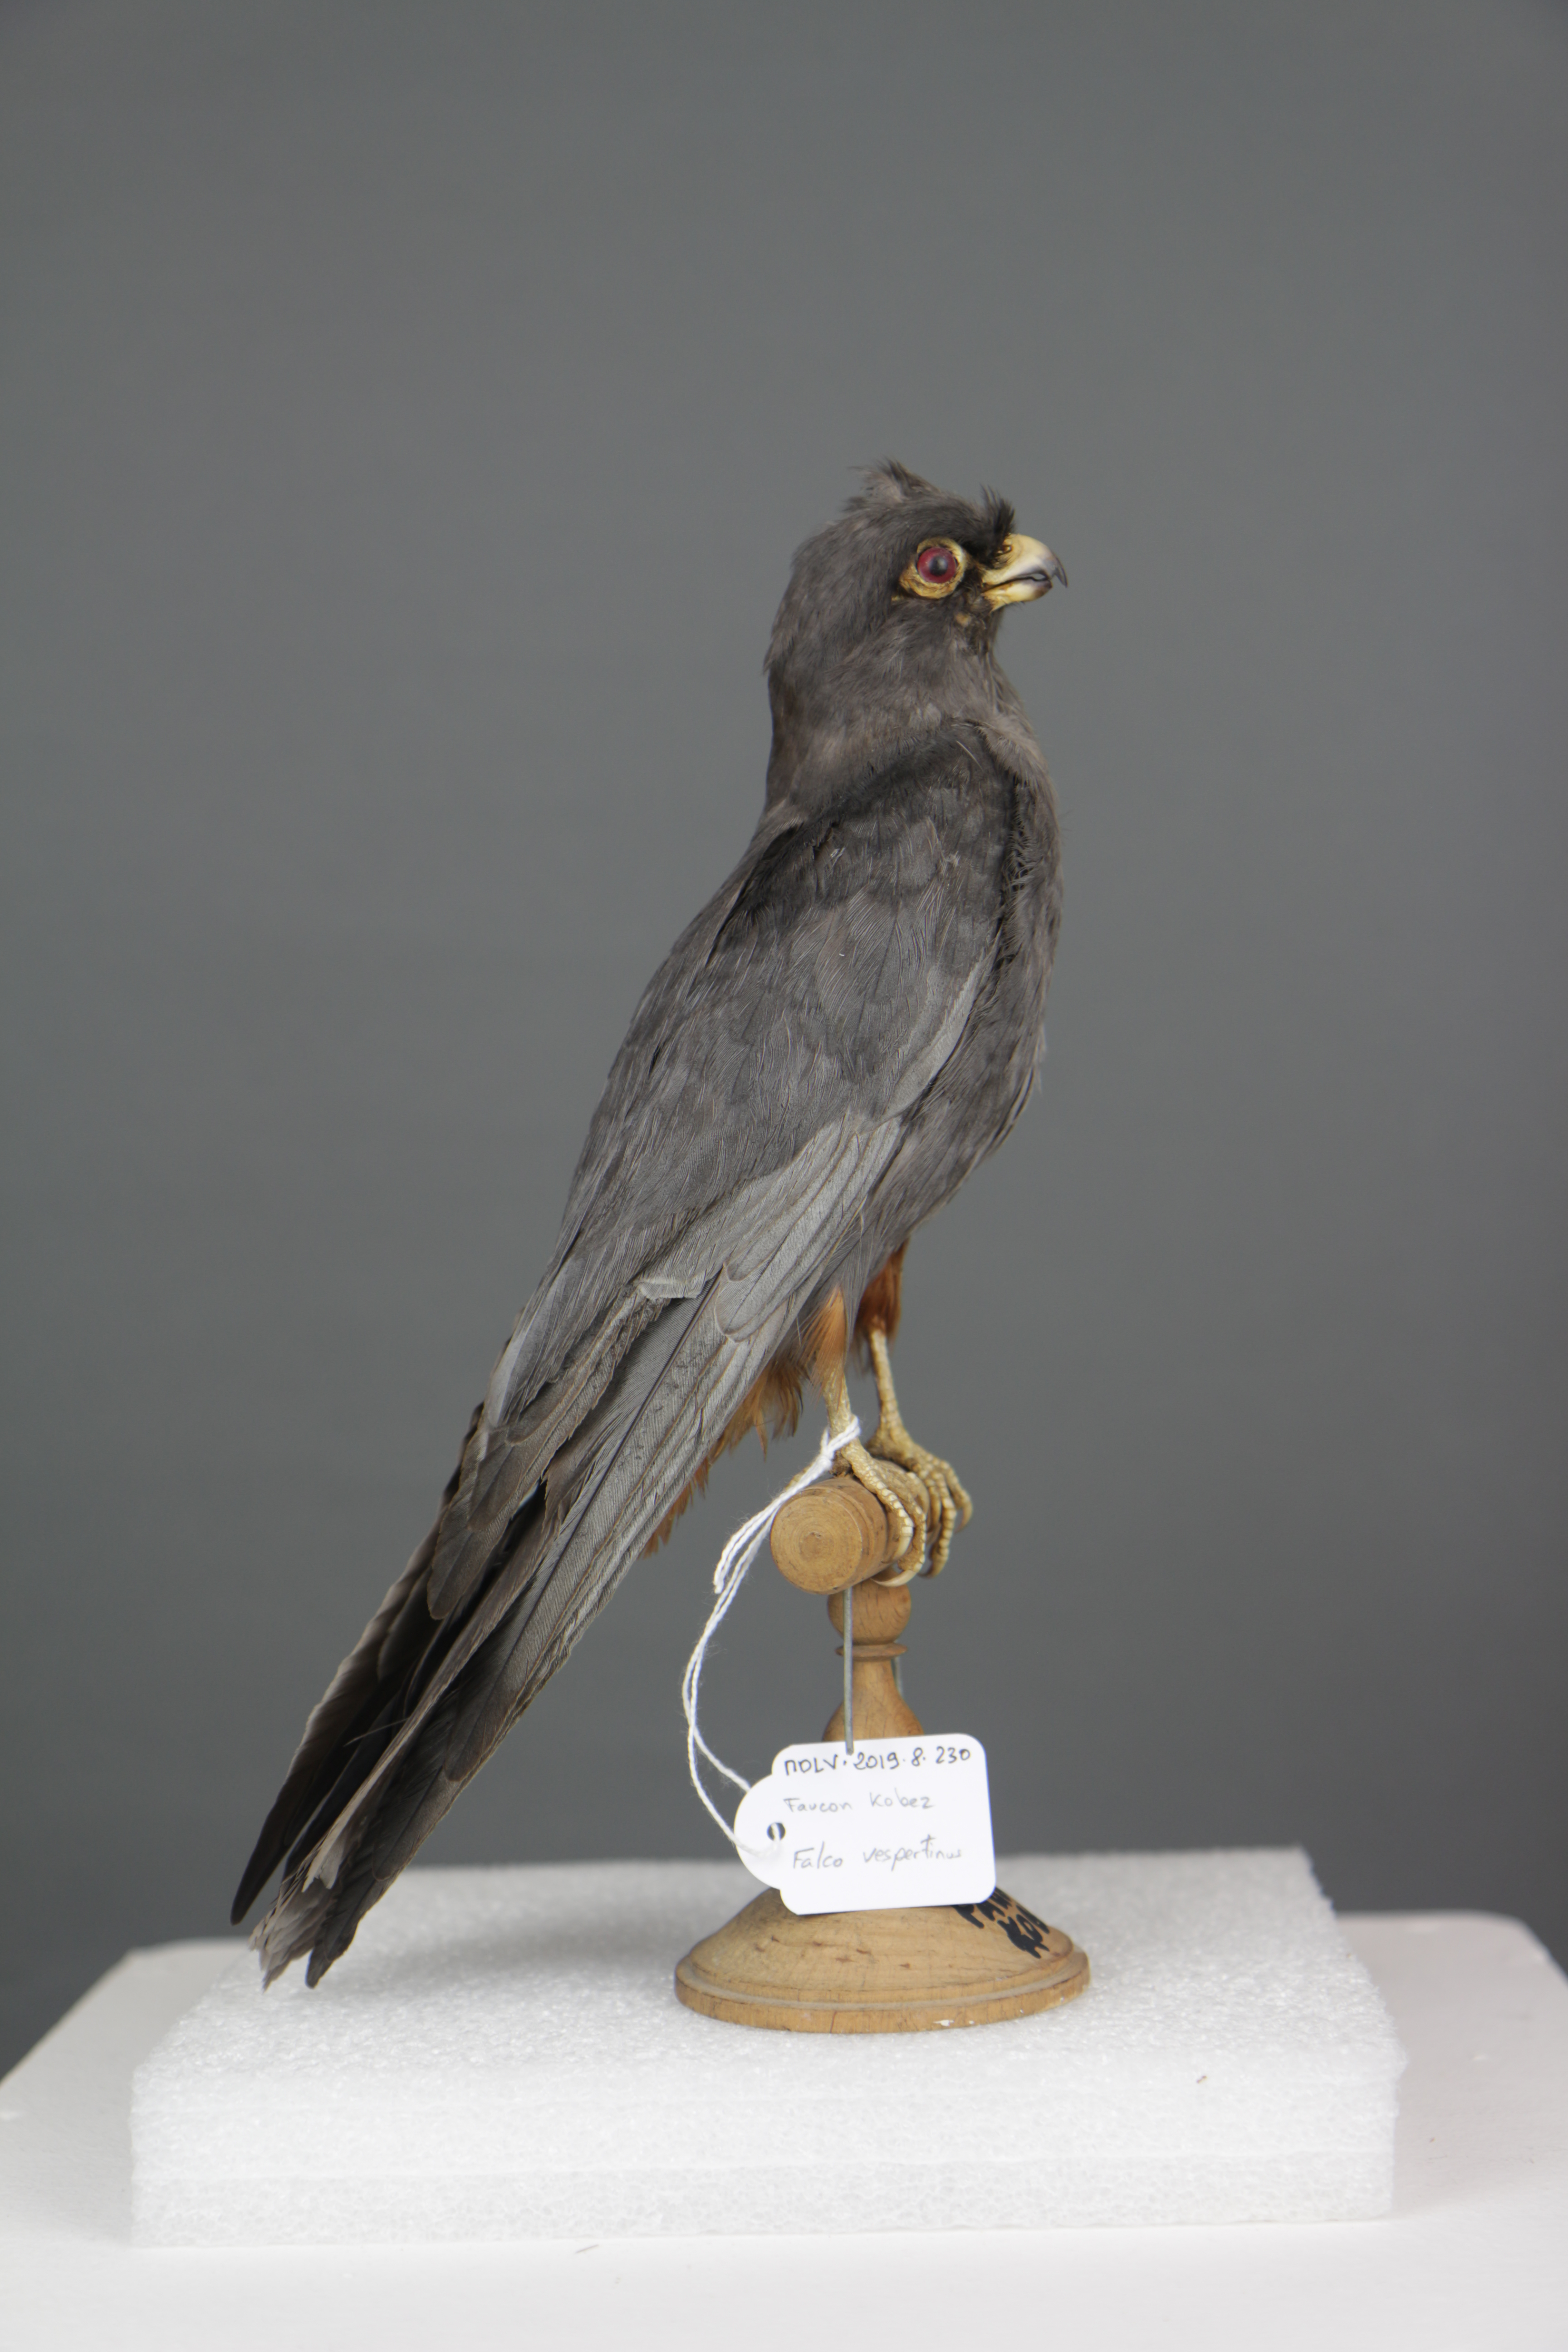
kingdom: Animalia
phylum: Chordata
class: Aves
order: Falconiformes
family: Falconidae
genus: Falco
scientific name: Falco vespertinus
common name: Red-footed falcon
